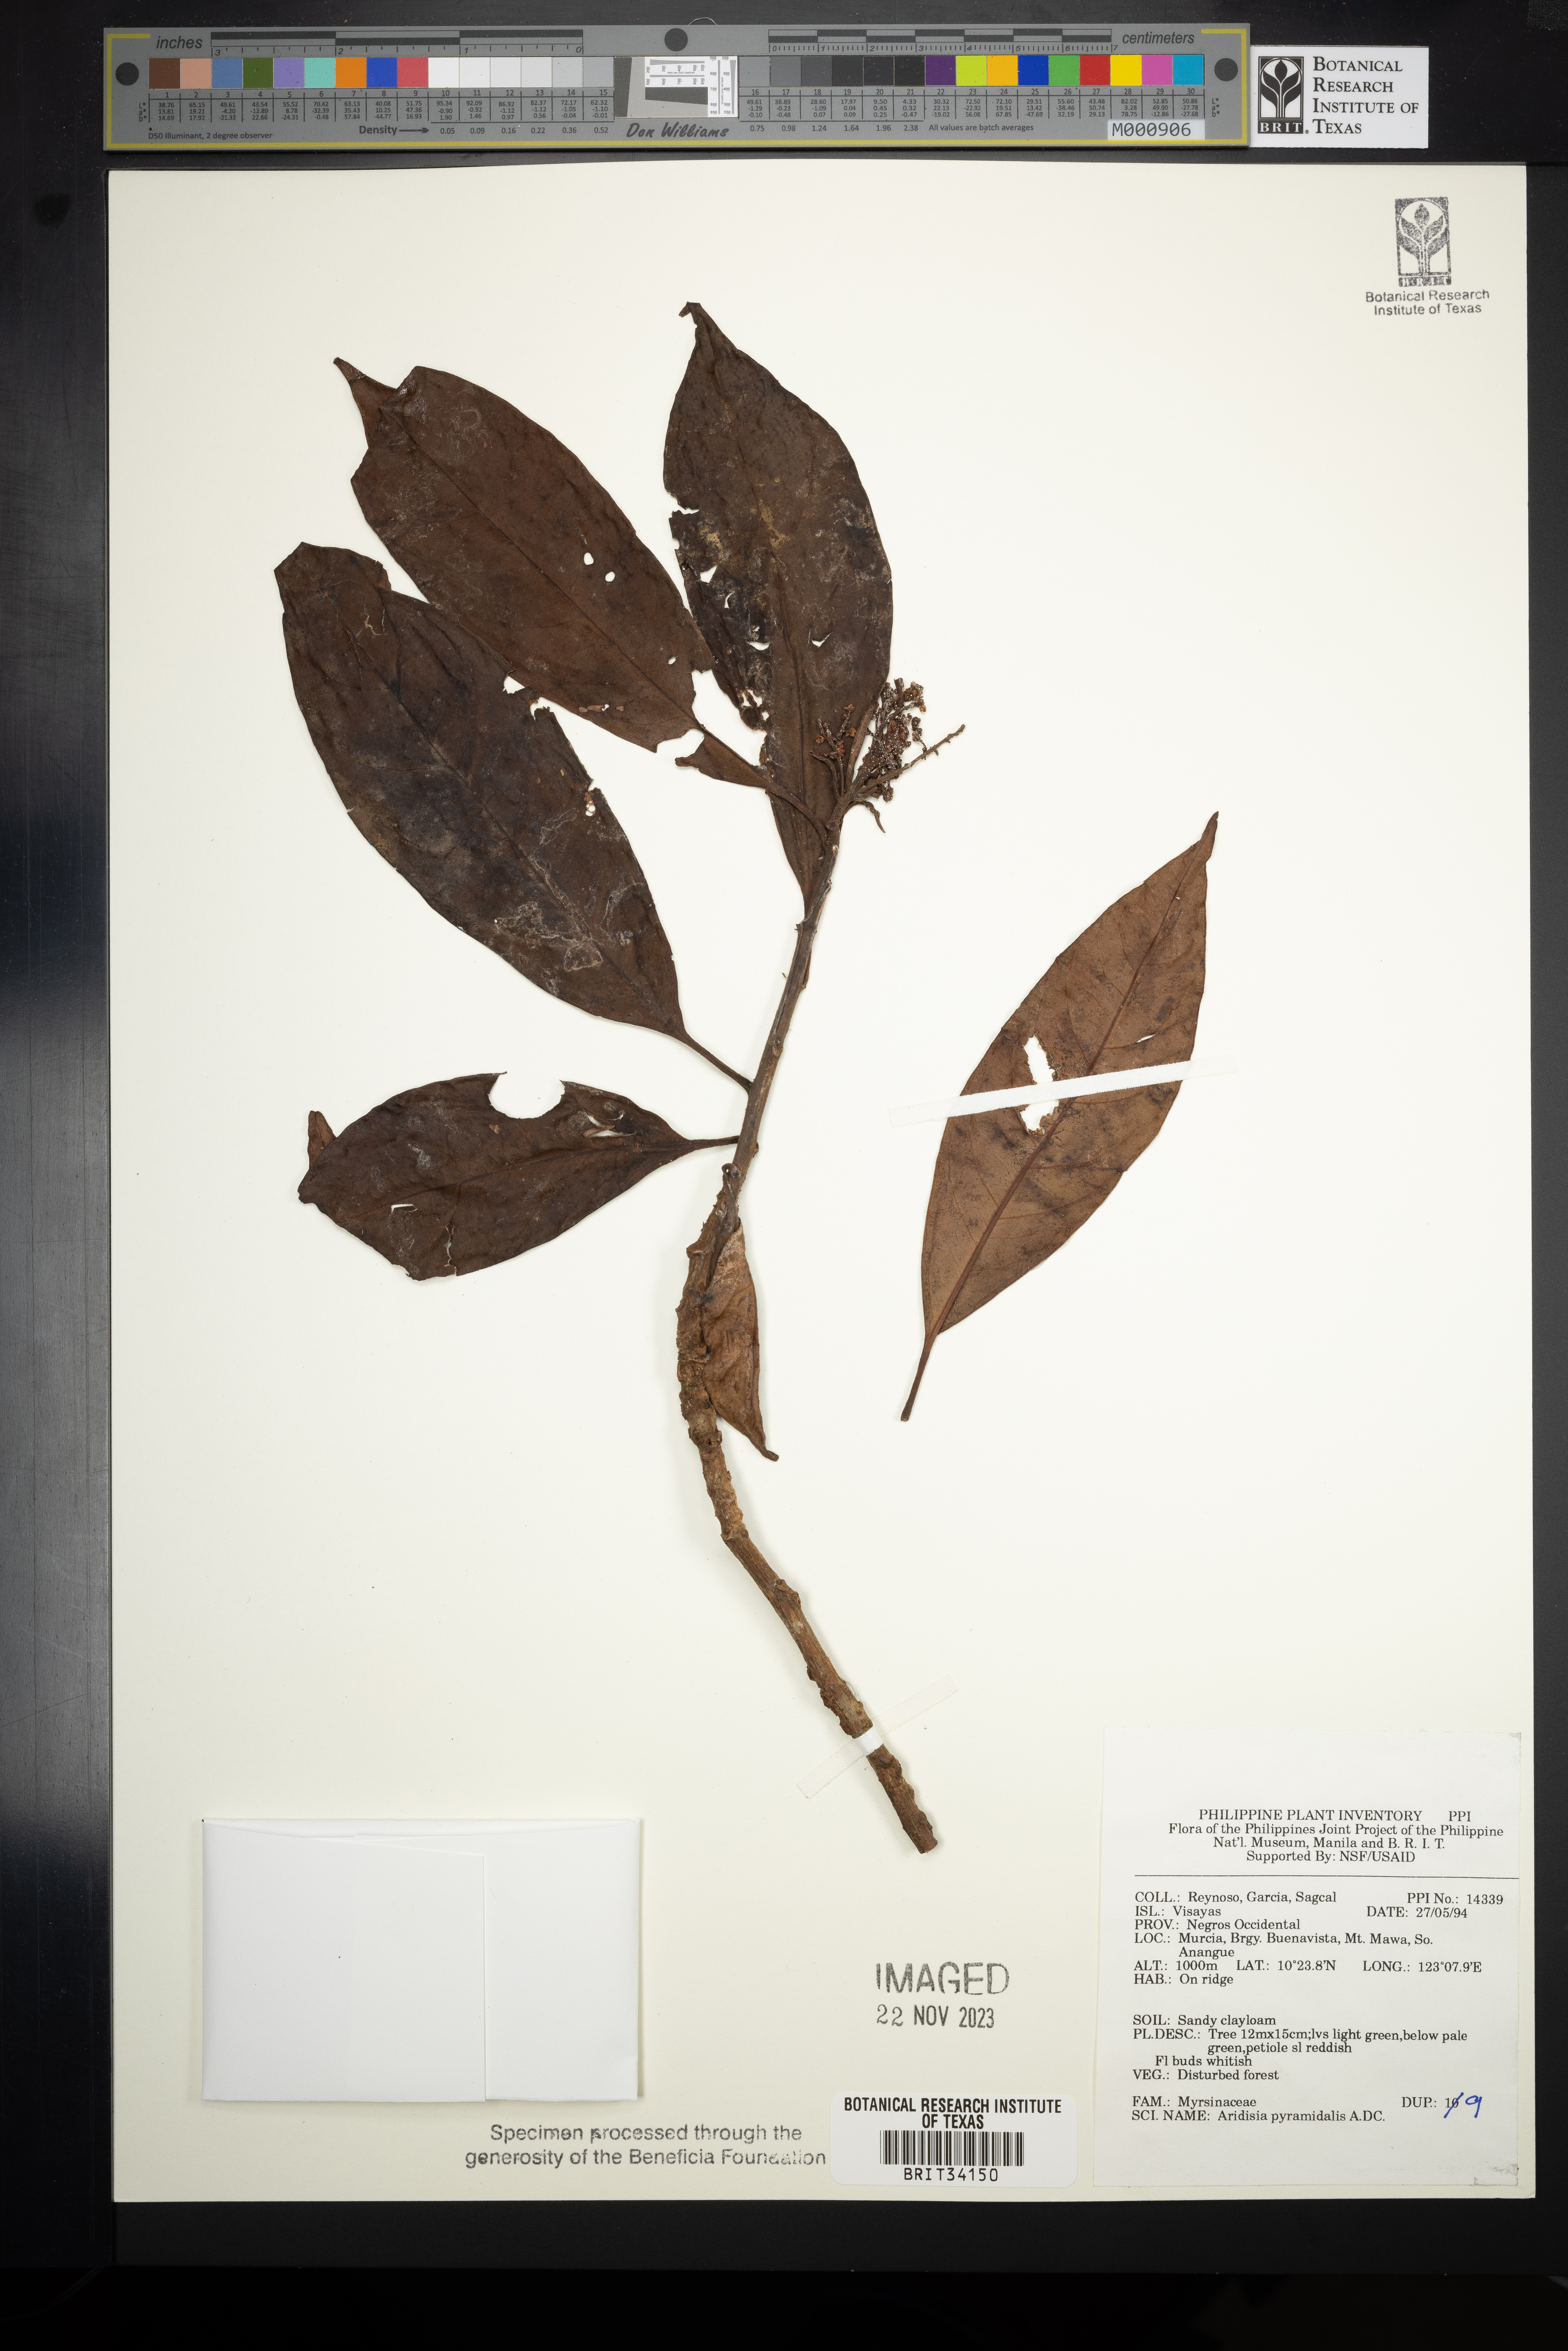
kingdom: Plantae
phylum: Tracheophyta
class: Magnoliopsida
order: Ericales
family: Primulaceae
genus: Ardisia
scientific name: Ardisia pyramidalis
